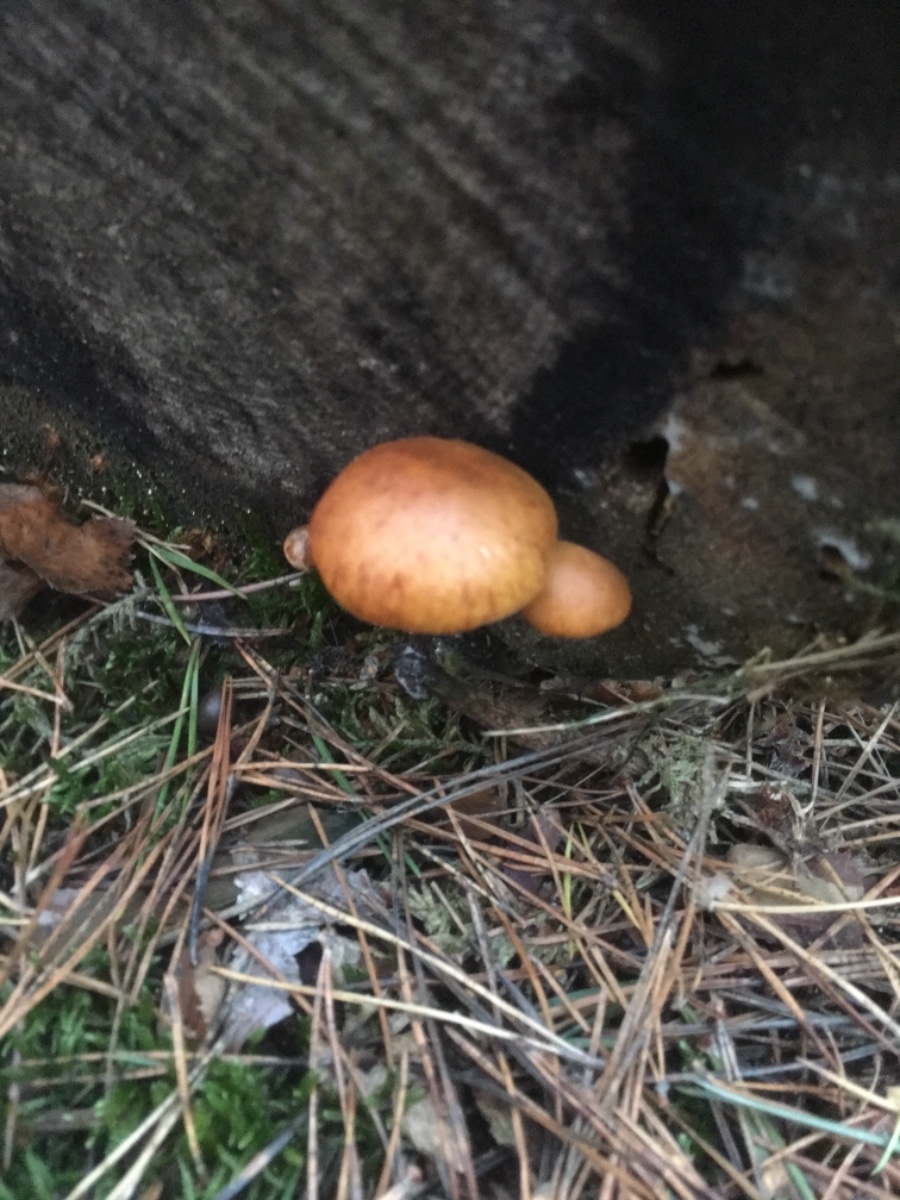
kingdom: Fungi
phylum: Basidiomycota
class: Agaricomycetes
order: Agaricales
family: Hymenogastraceae
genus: Gymnopilus
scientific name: Gymnopilus penetrans
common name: plettet flammehat
